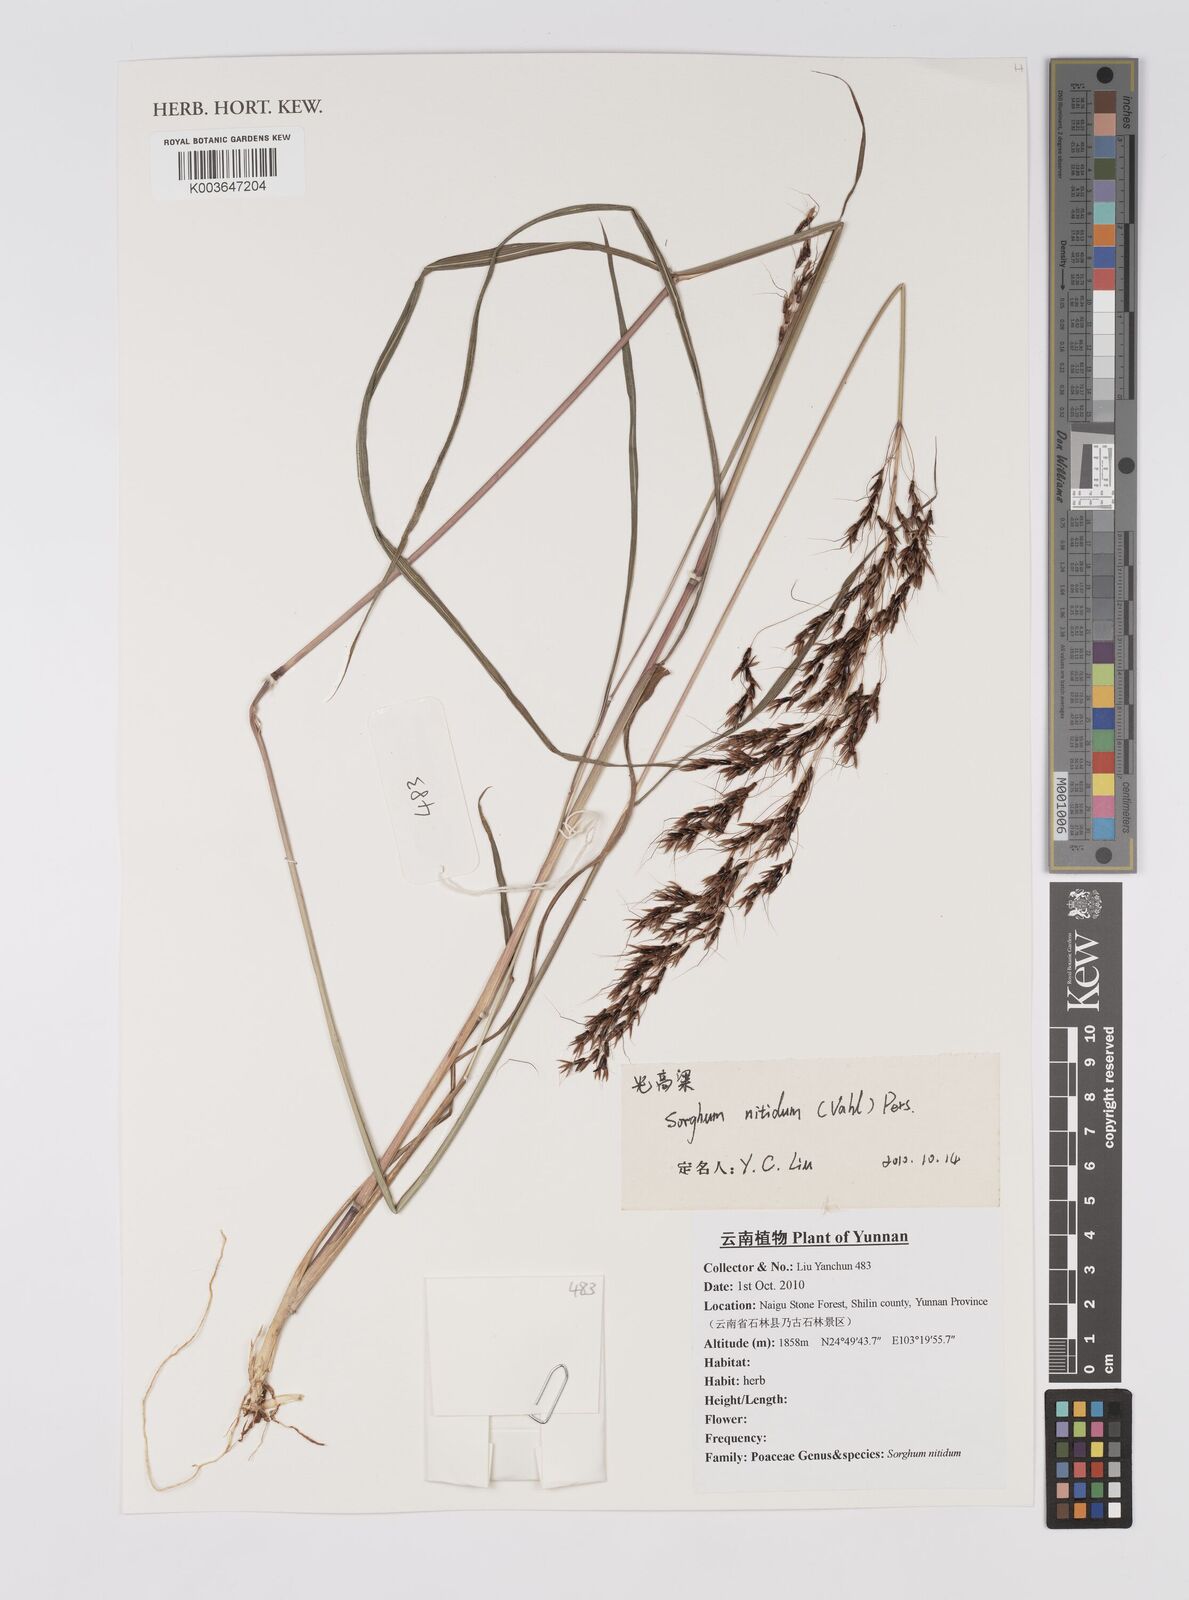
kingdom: Plantae
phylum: Tracheophyta
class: Liliopsida
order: Poales
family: Poaceae
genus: Sorghum
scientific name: Sorghum nitidum
